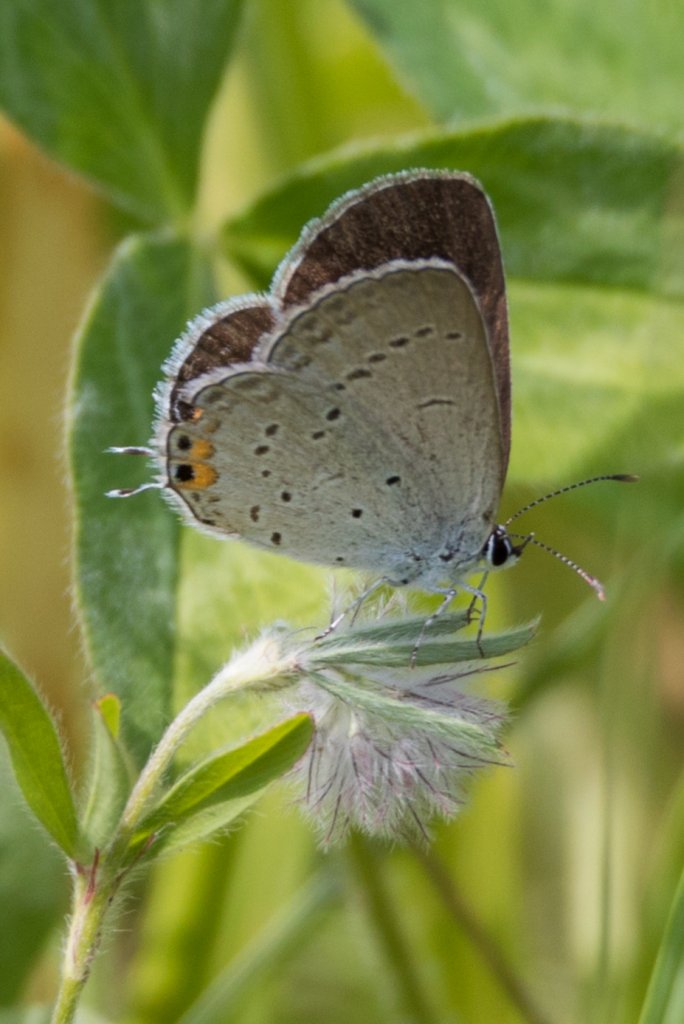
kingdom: Animalia
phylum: Arthropoda
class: Insecta
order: Lepidoptera
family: Lycaenidae
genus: Elkalyce
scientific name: Elkalyce comyntas
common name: Eastern Tailed-Blue
